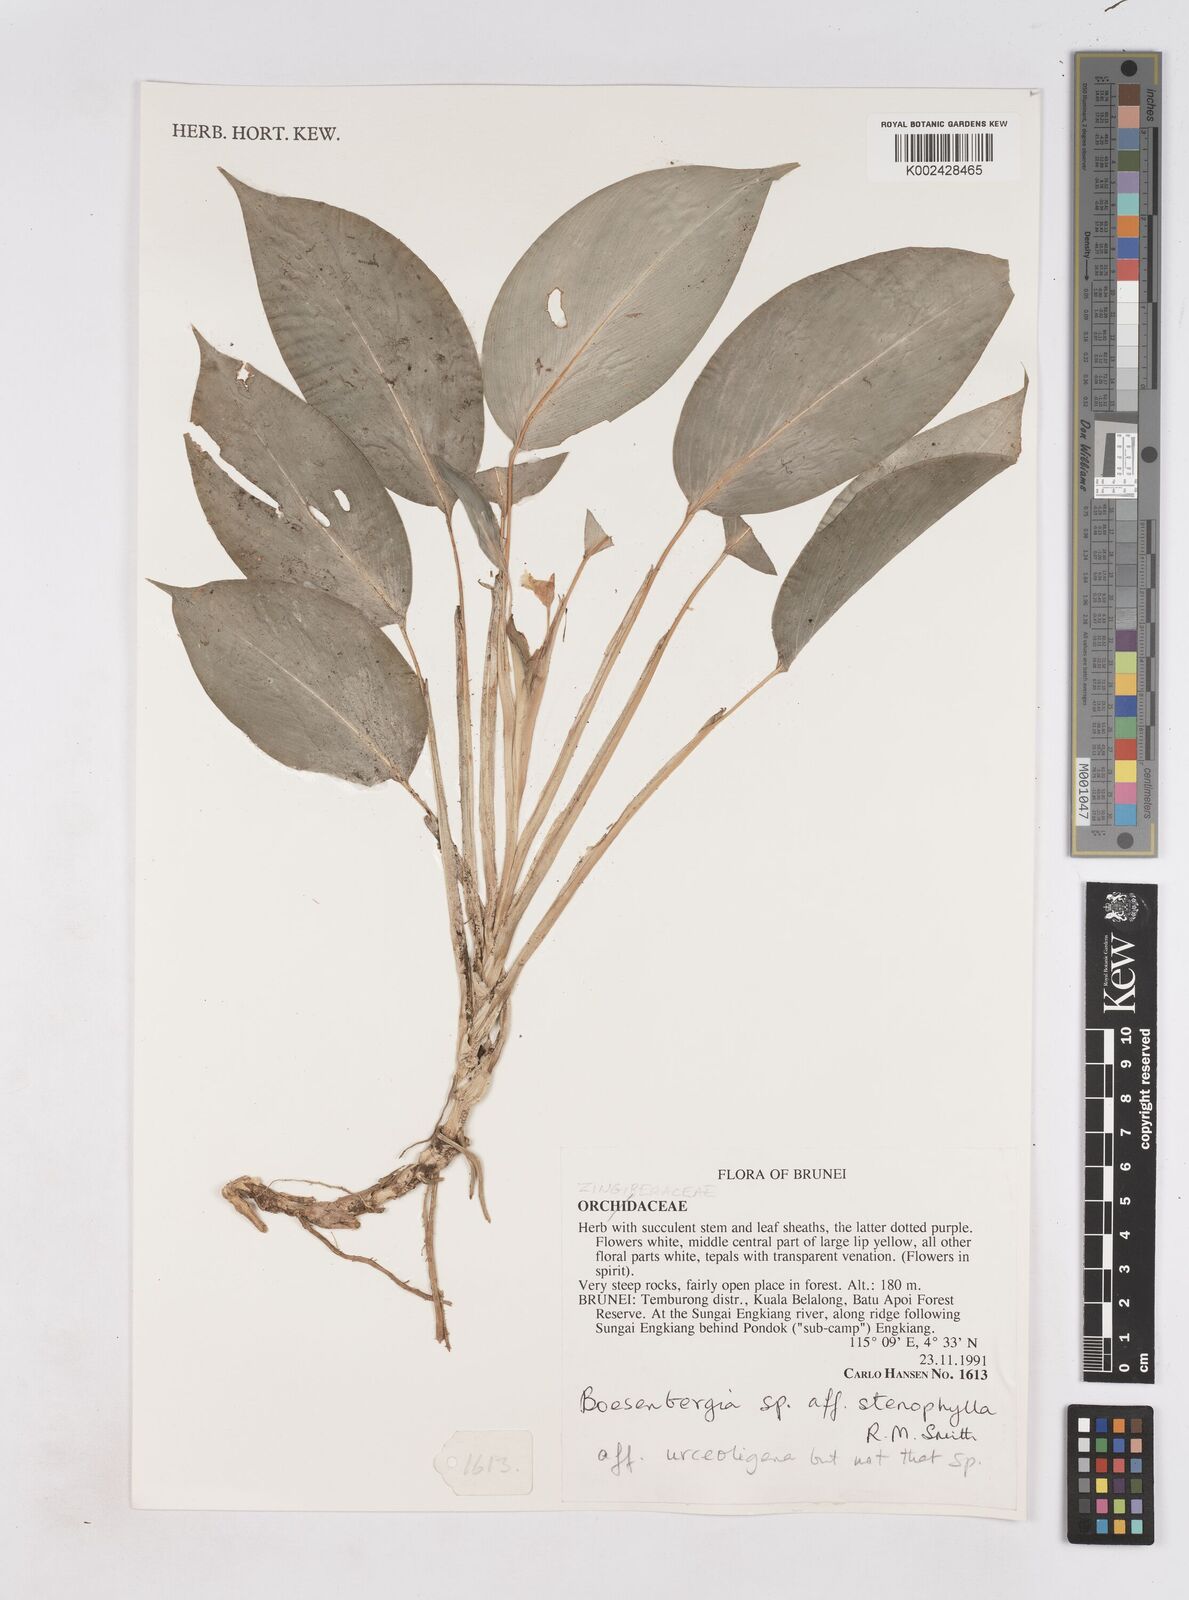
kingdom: Plantae
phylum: Tracheophyta
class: Liliopsida
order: Zingiberales
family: Zingiberaceae
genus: Boesenbergia
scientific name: Boesenbergia stenophylla
